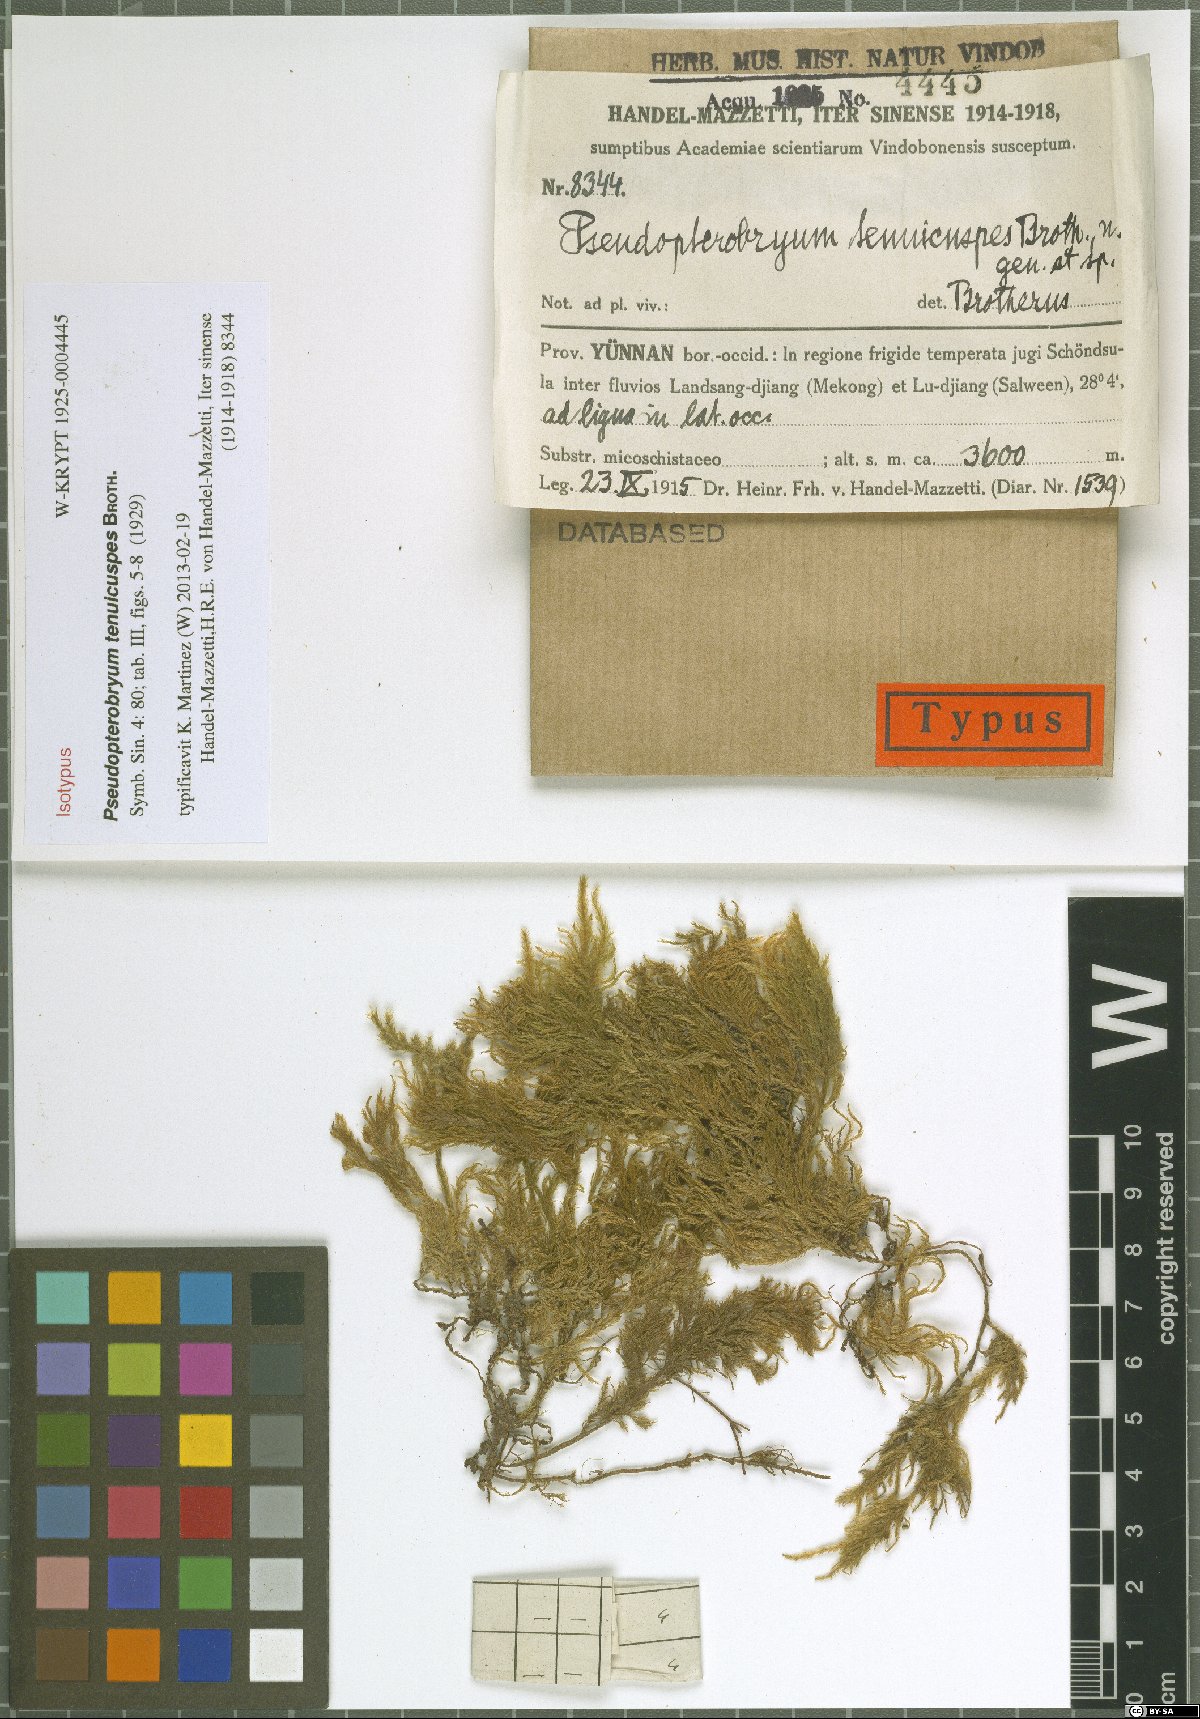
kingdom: Plantae
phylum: Bryophyta
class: Bryopsida
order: Hypnales
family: Neckeraceae
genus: Pseudopterobryum
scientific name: Pseudopterobryum tenuicuspis
